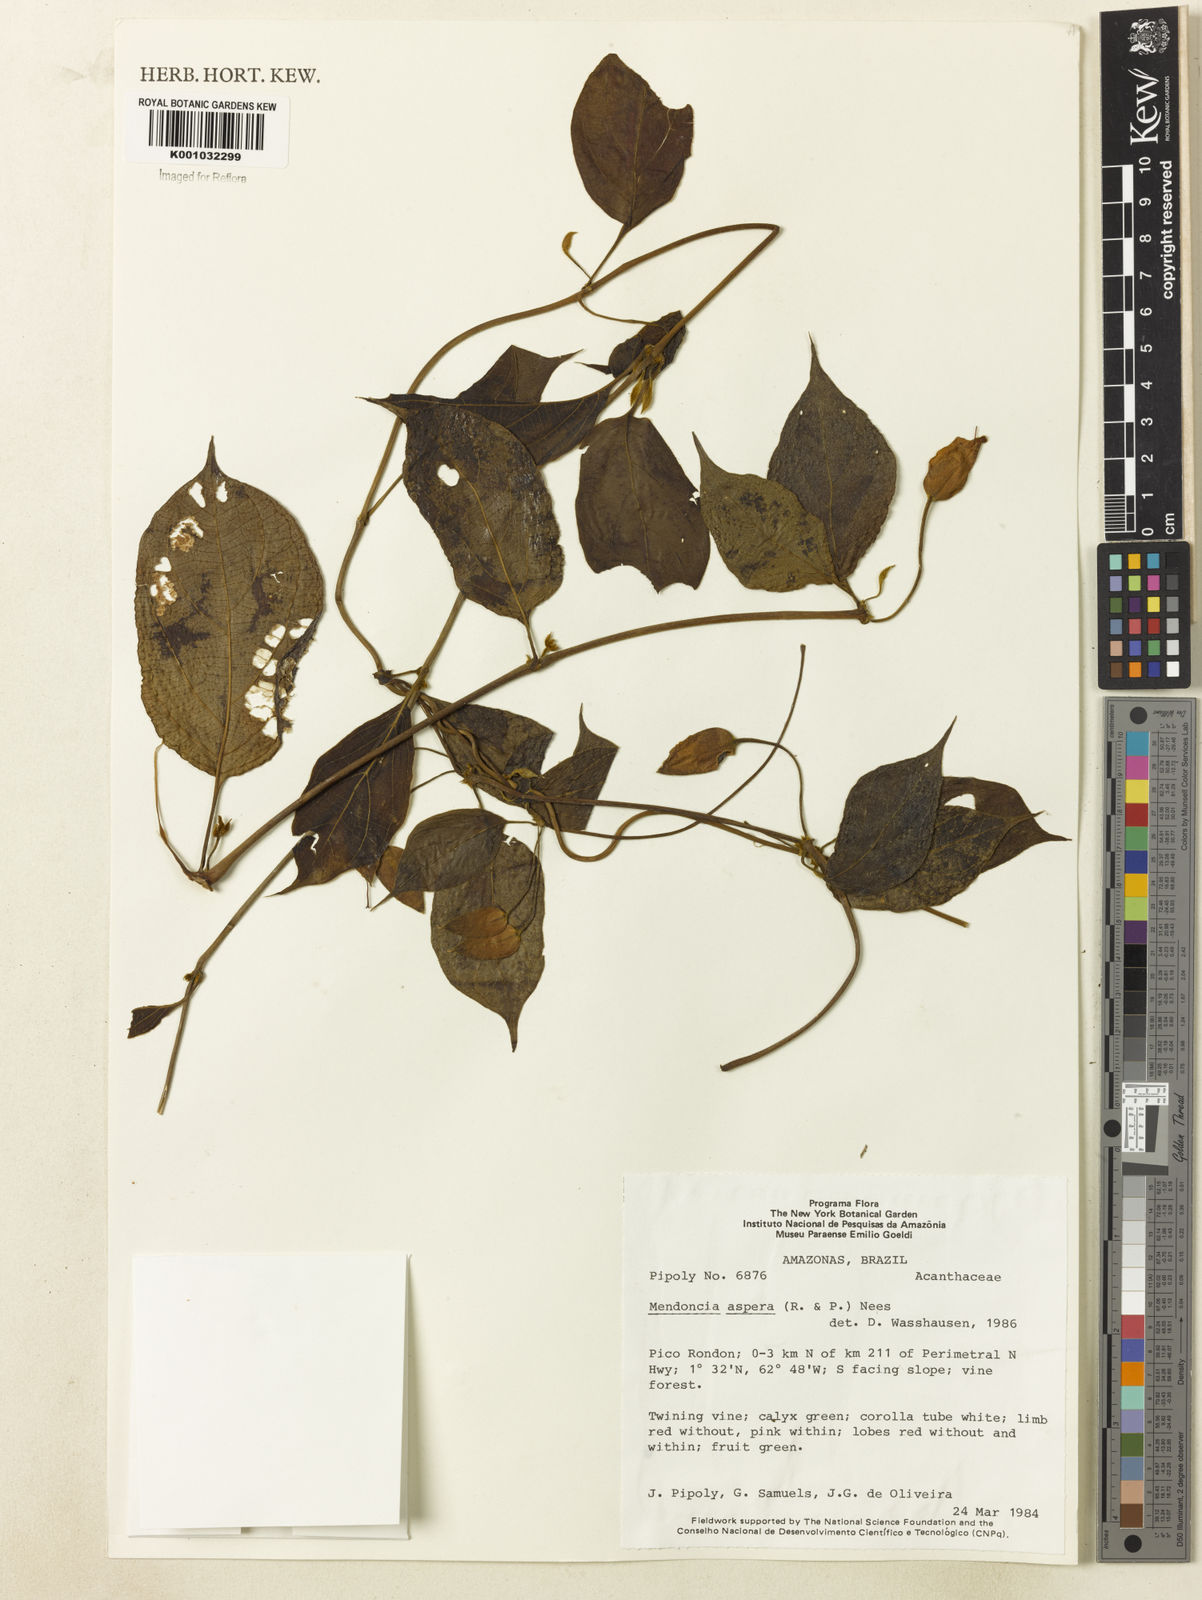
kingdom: Plantae
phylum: Tracheophyta
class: Magnoliopsida
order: Lamiales
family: Acanthaceae
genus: Mendoncia
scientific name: Mendoncia
